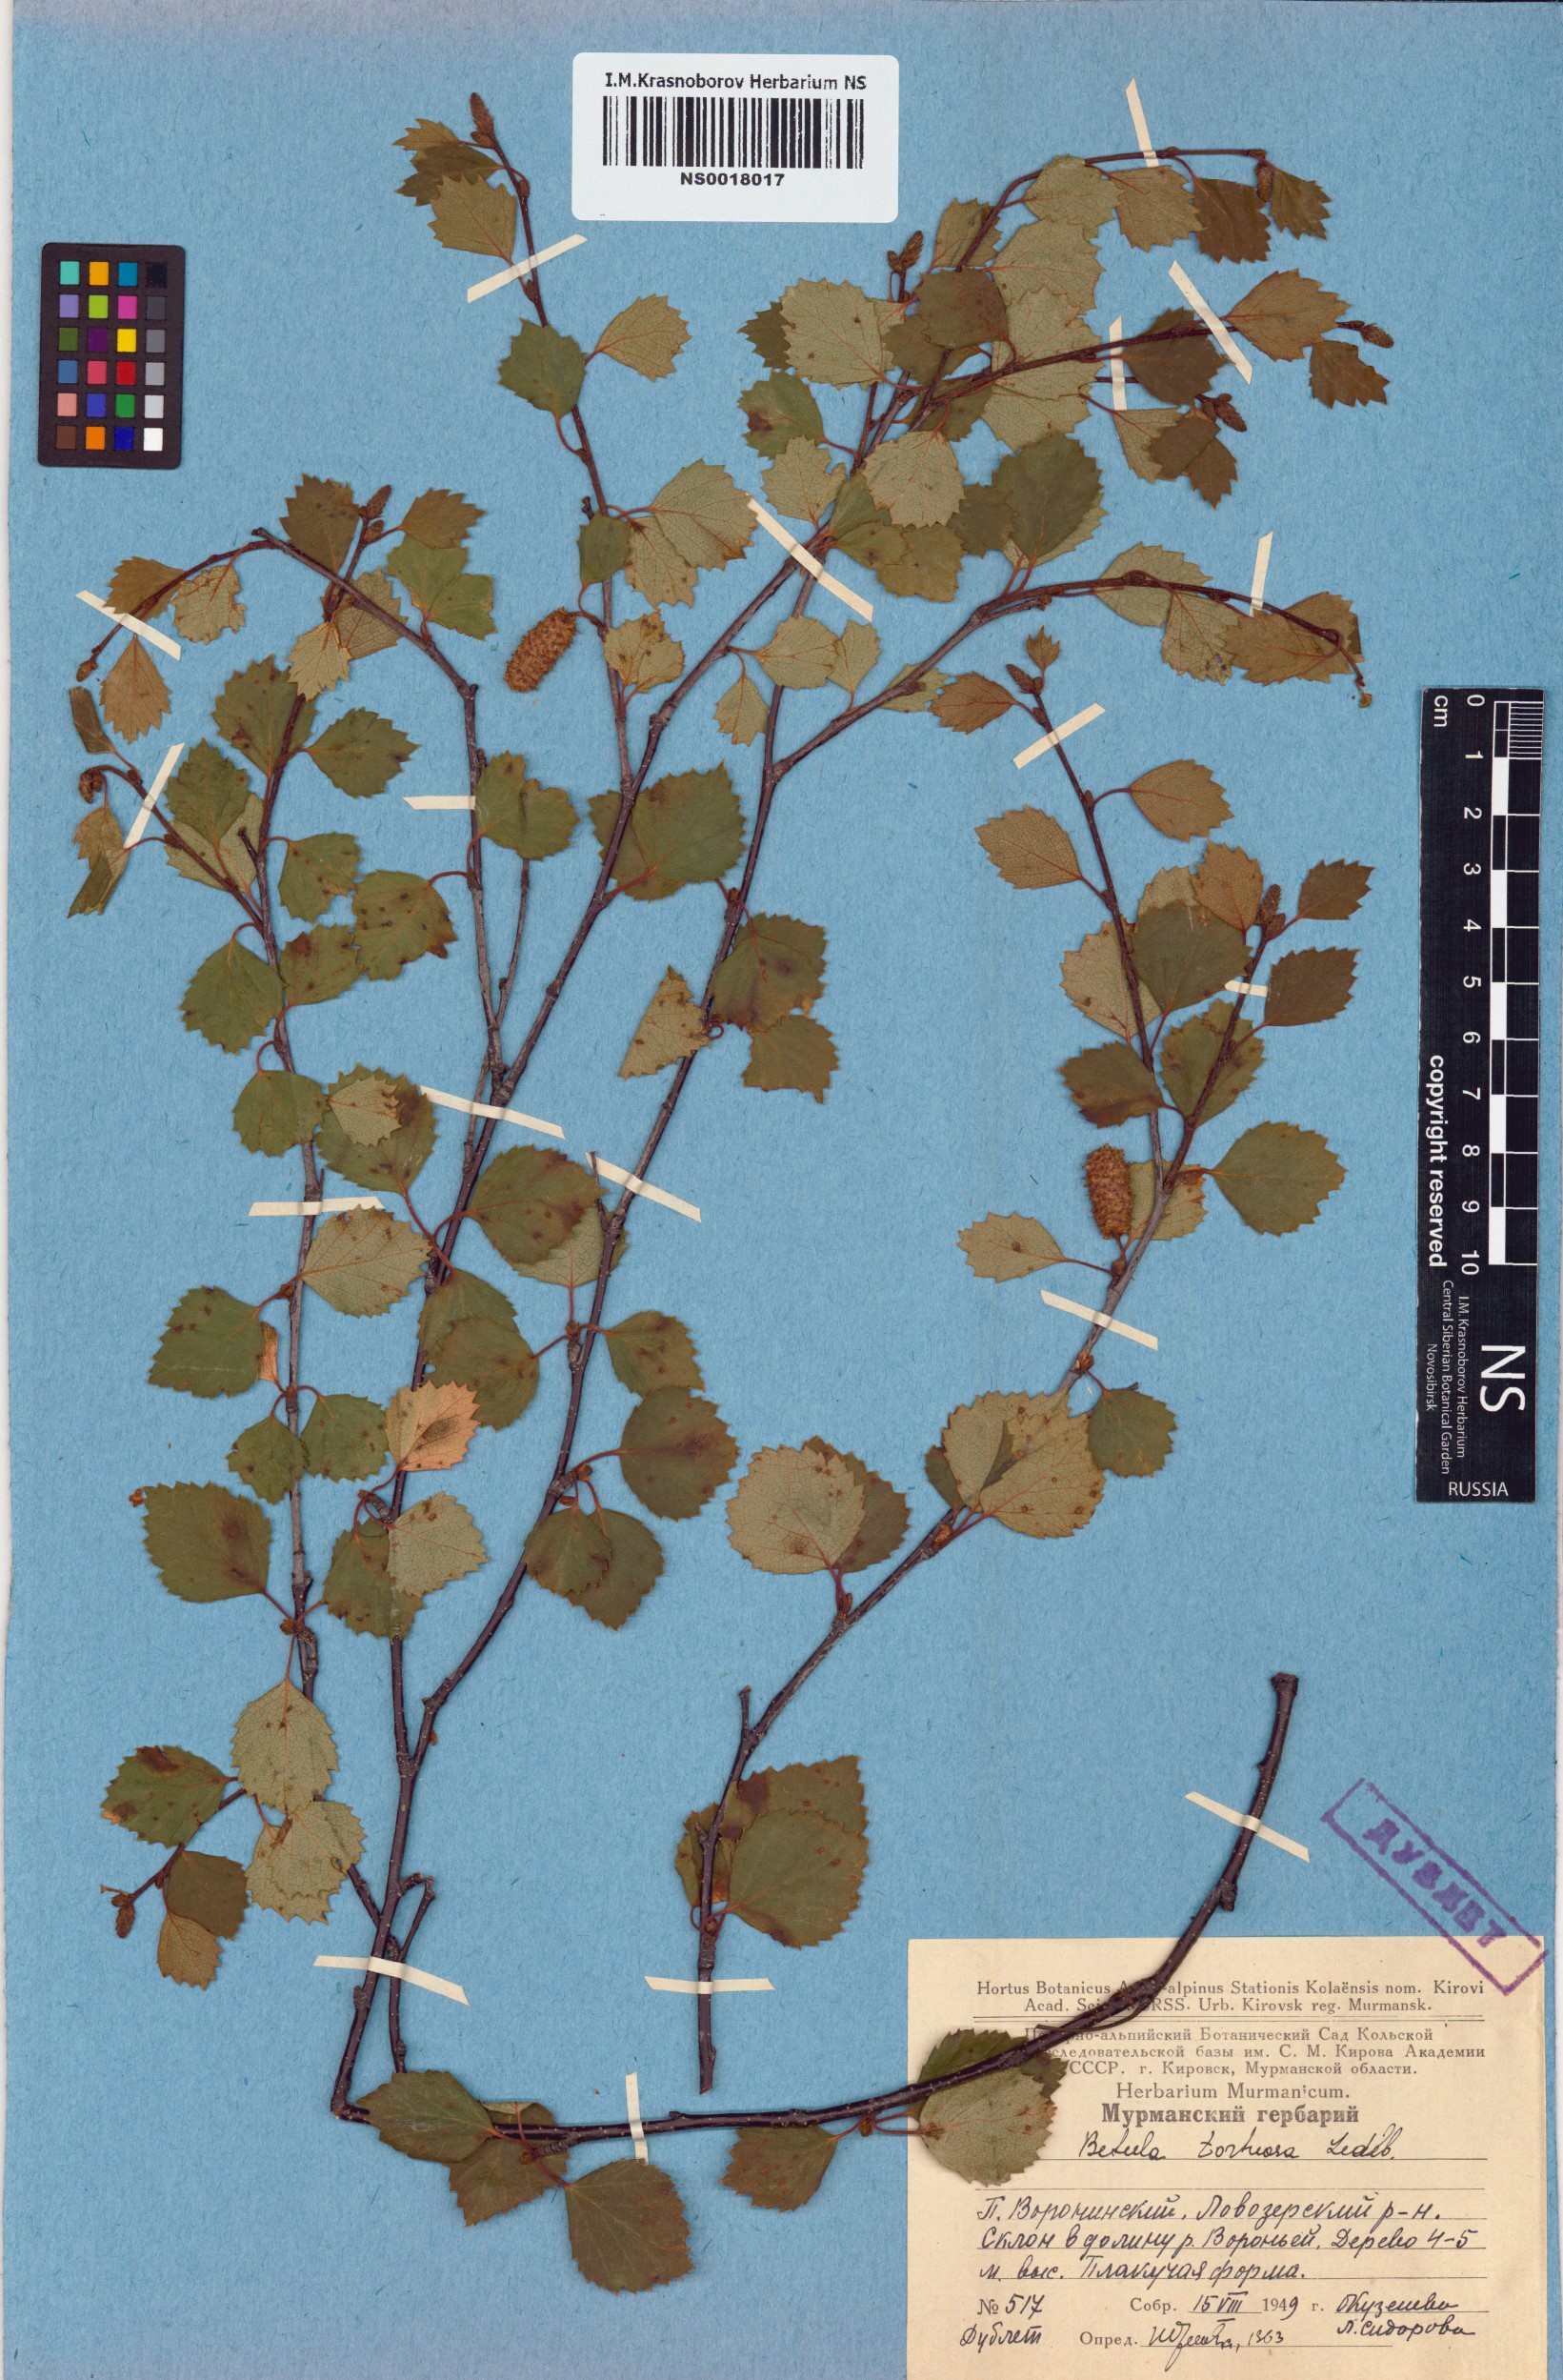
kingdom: Plantae
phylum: Tracheophyta
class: Magnoliopsida
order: Fagales
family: Betulaceae
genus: Betula
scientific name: Betula pubescens
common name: Downy birch
